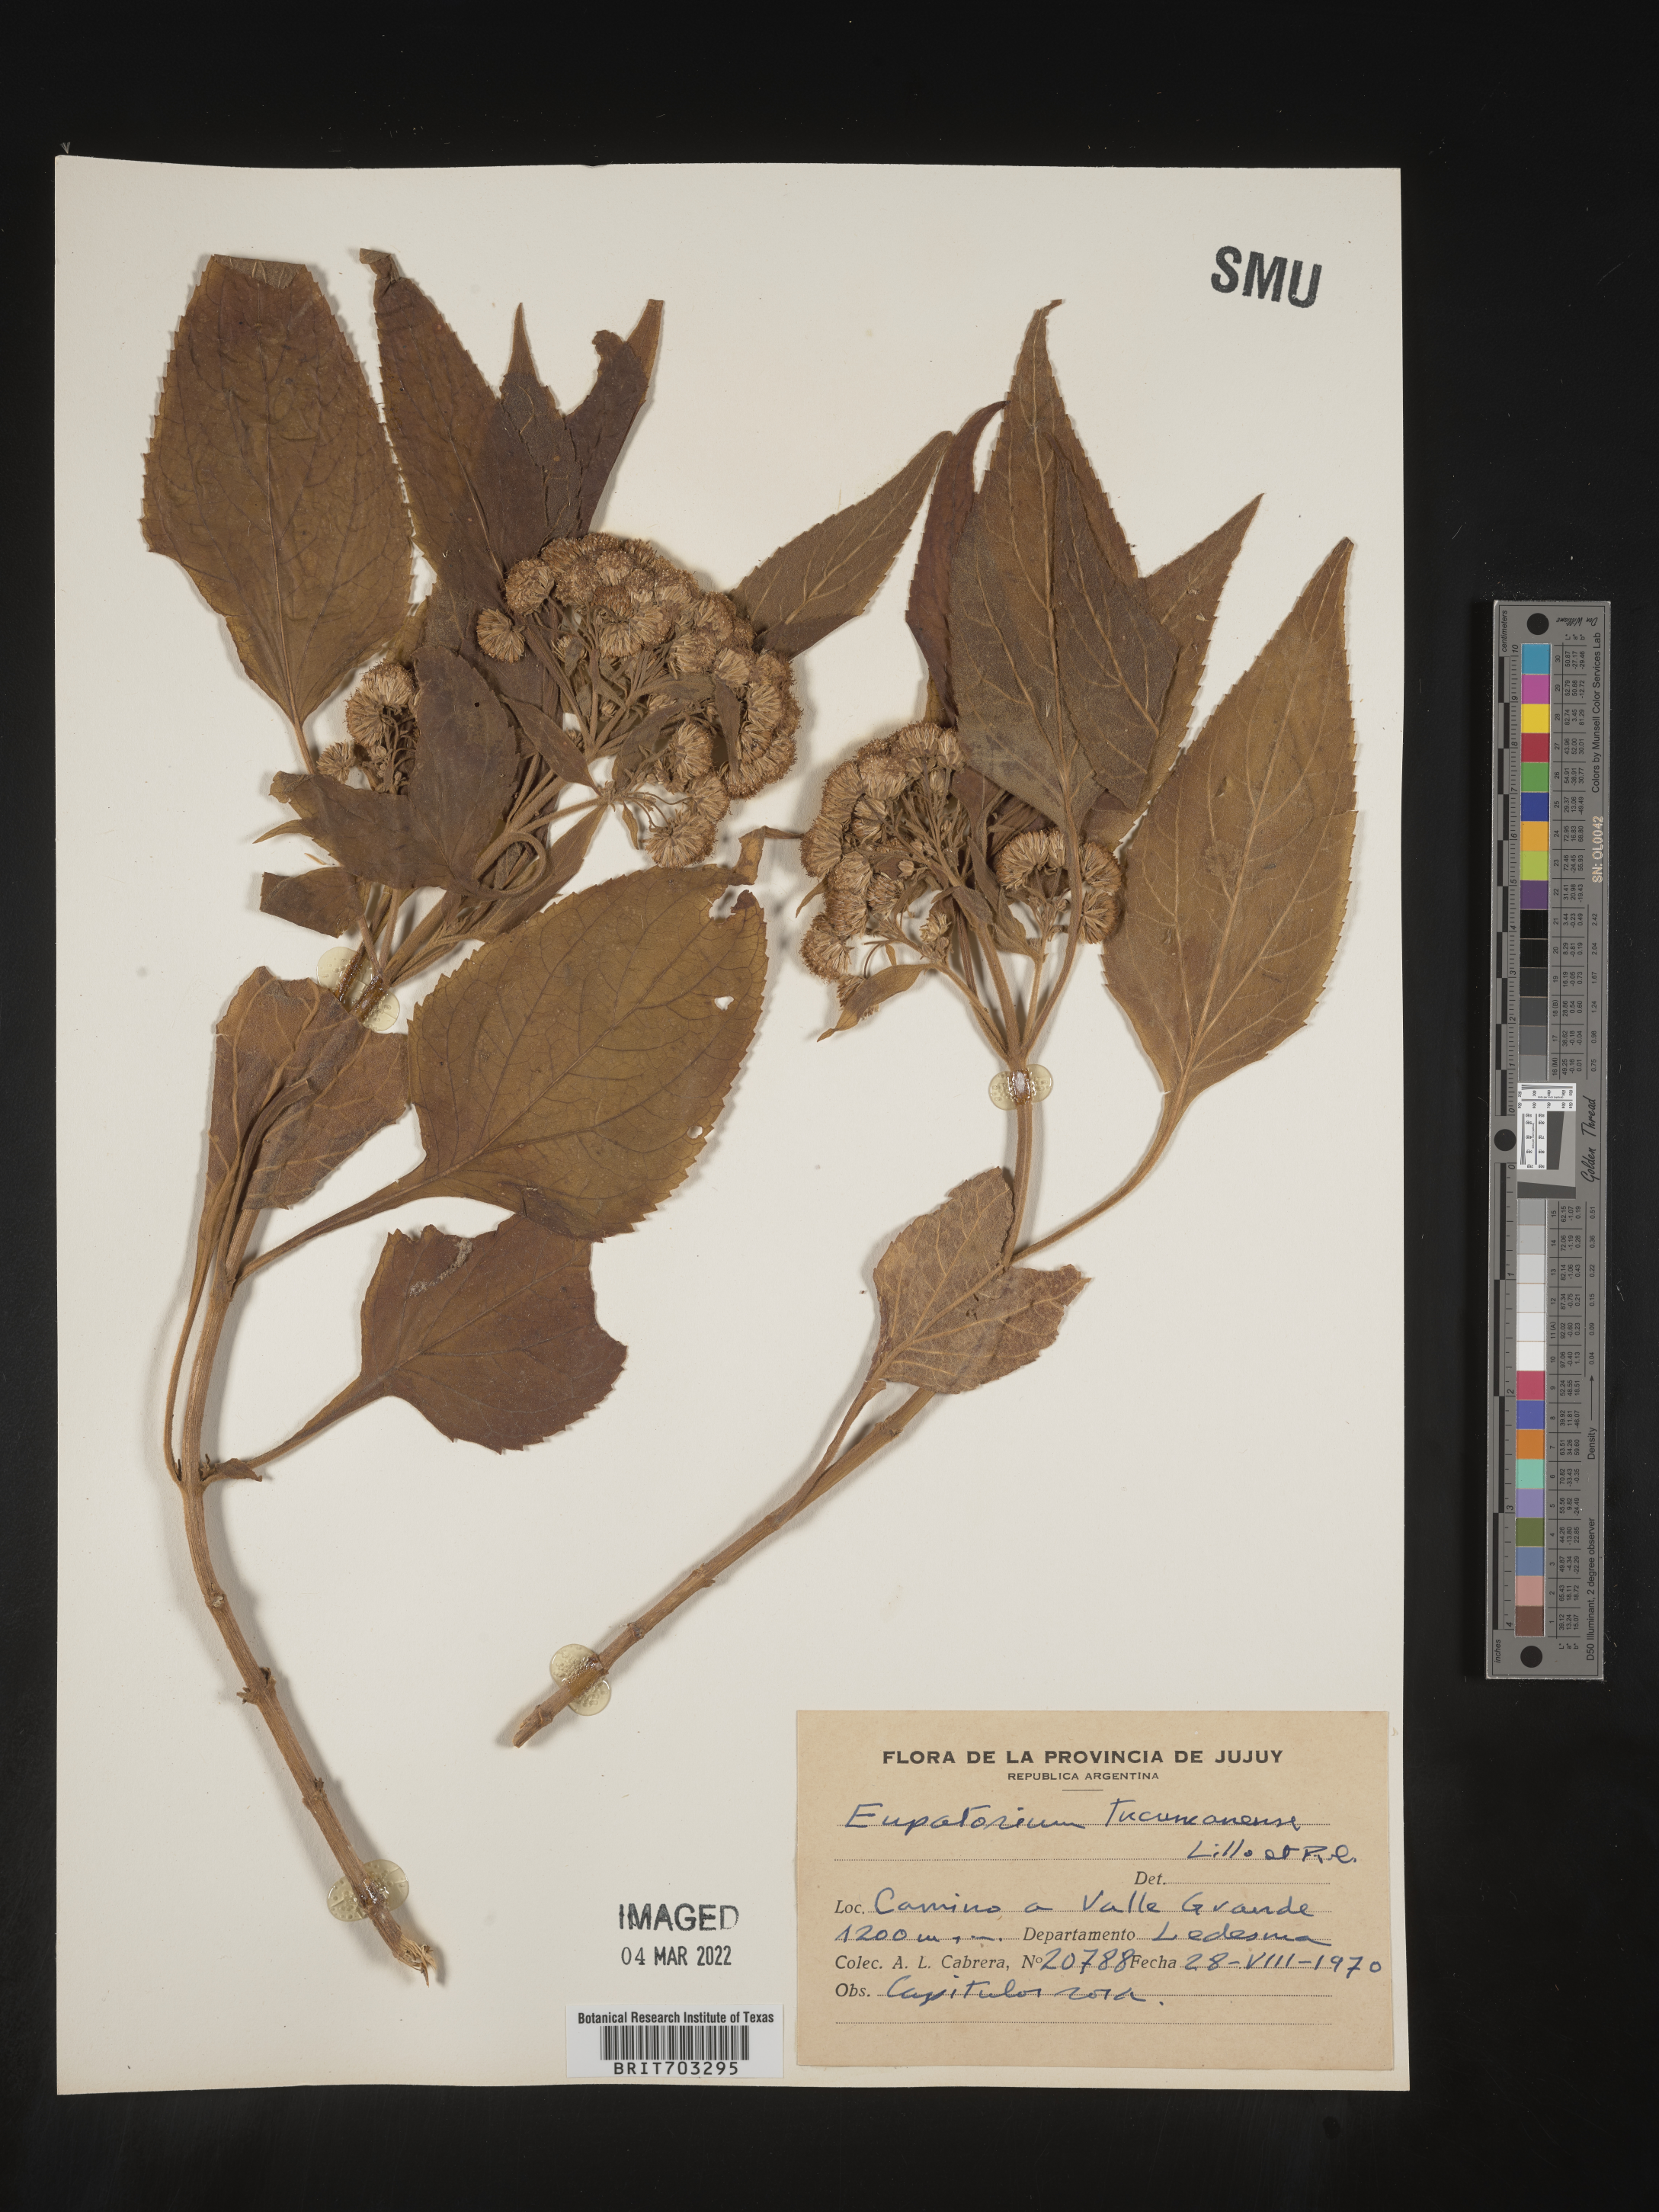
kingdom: Plantae
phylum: Tracheophyta
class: Magnoliopsida
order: Asterales
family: Asteraceae
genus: Eupatorium
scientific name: Eupatorium
